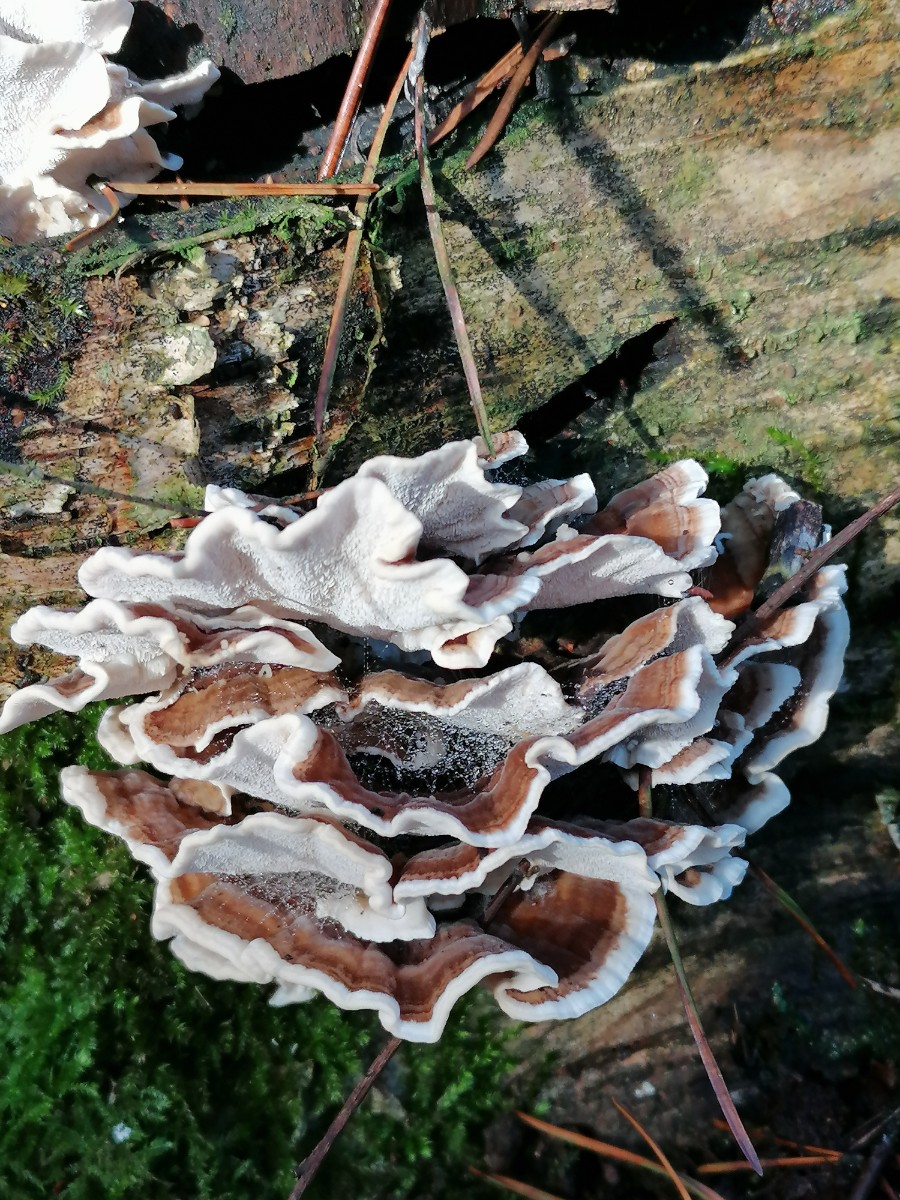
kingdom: Fungi
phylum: Basidiomycota
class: Agaricomycetes
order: Polyporales
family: Polyporaceae
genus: Trametes
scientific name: Trametes versicolor
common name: broget læderporesvamp
